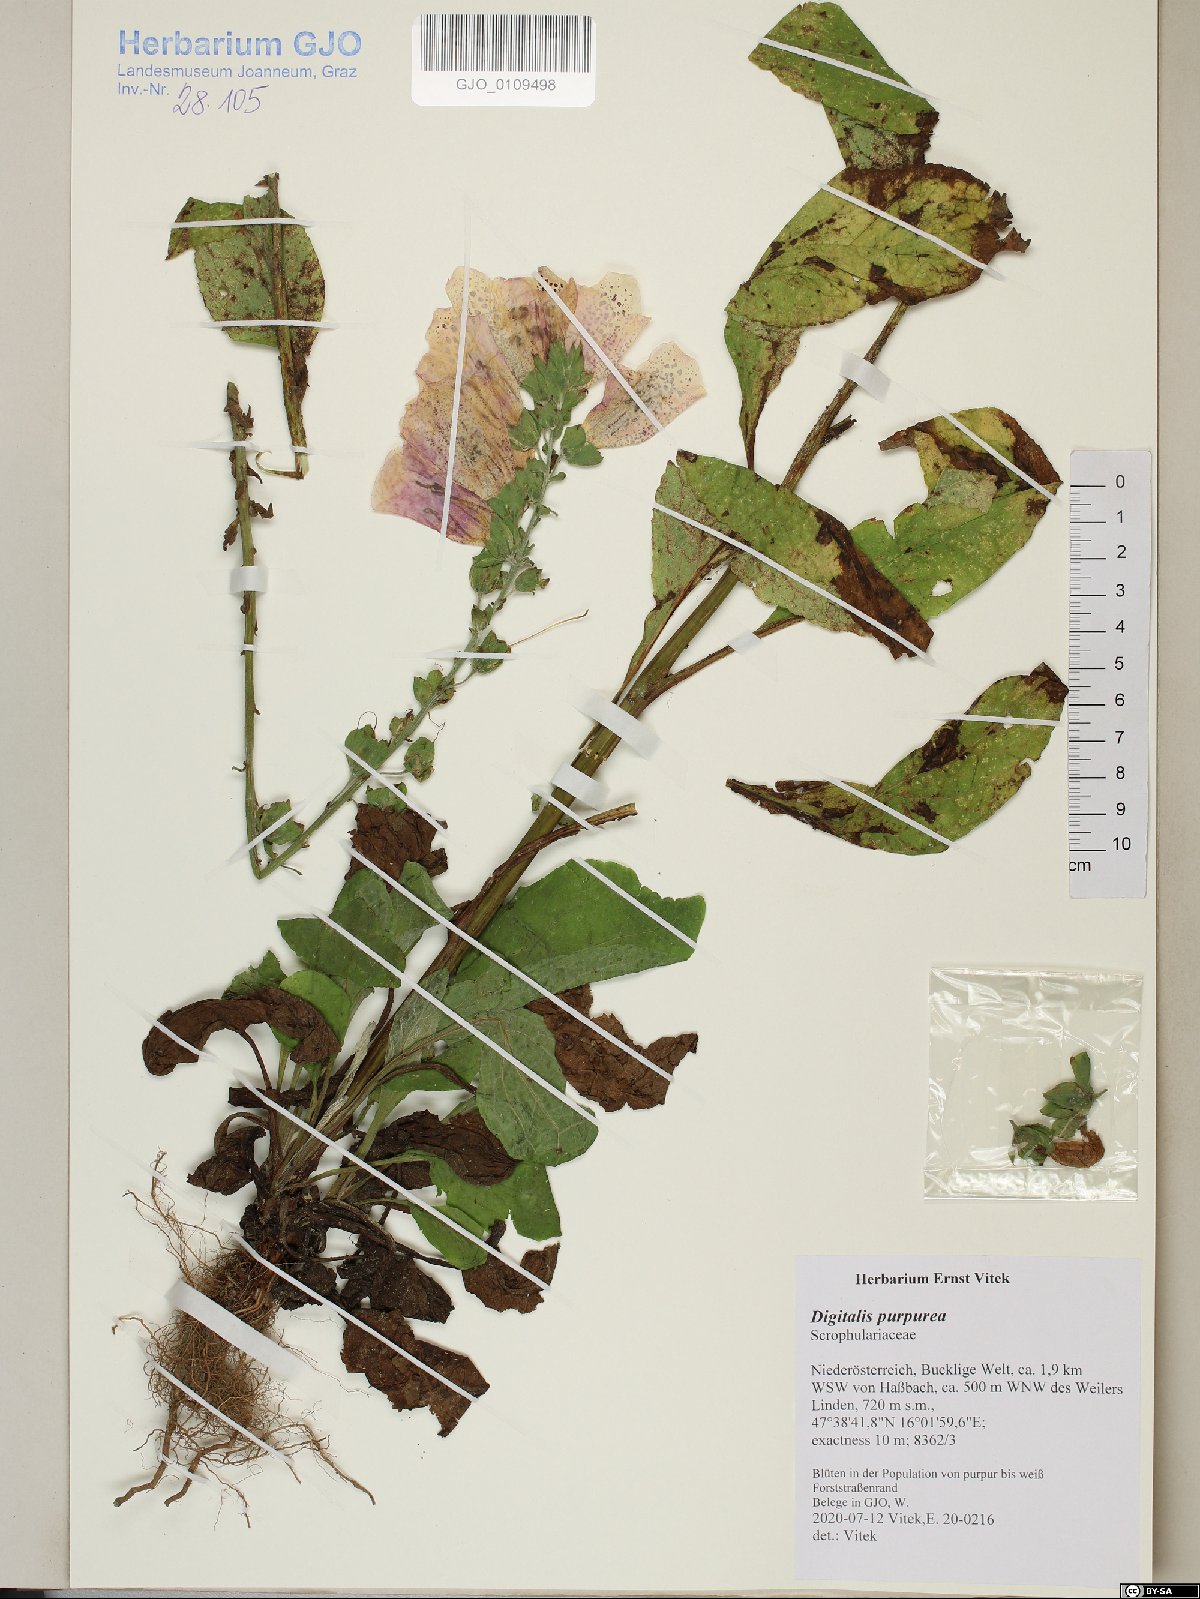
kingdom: Plantae
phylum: Tracheophyta
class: Magnoliopsida
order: Lamiales
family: Plantaginaceae
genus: Digitalis
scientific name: Digitalis purpurea
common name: Foxglove
